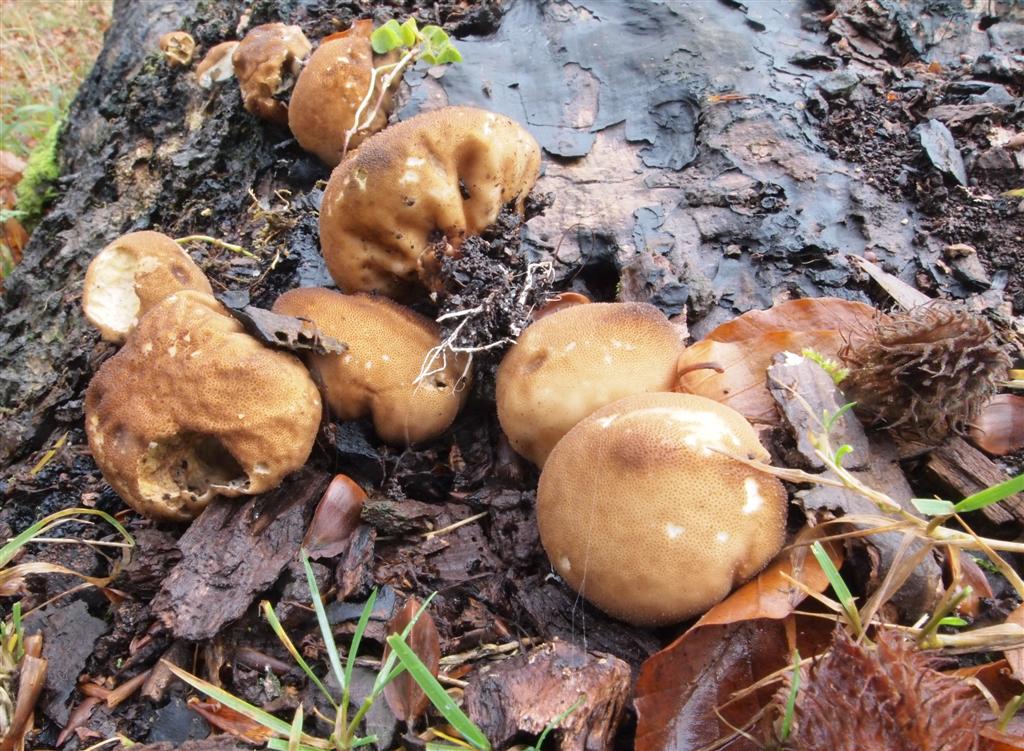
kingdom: Fungi
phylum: Basidiomycota
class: Agaricomycetes
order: Agaricales
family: Lycoperdaceae
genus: Apioperdon
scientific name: Apioperdon pyriforme
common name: pære-støvbold
